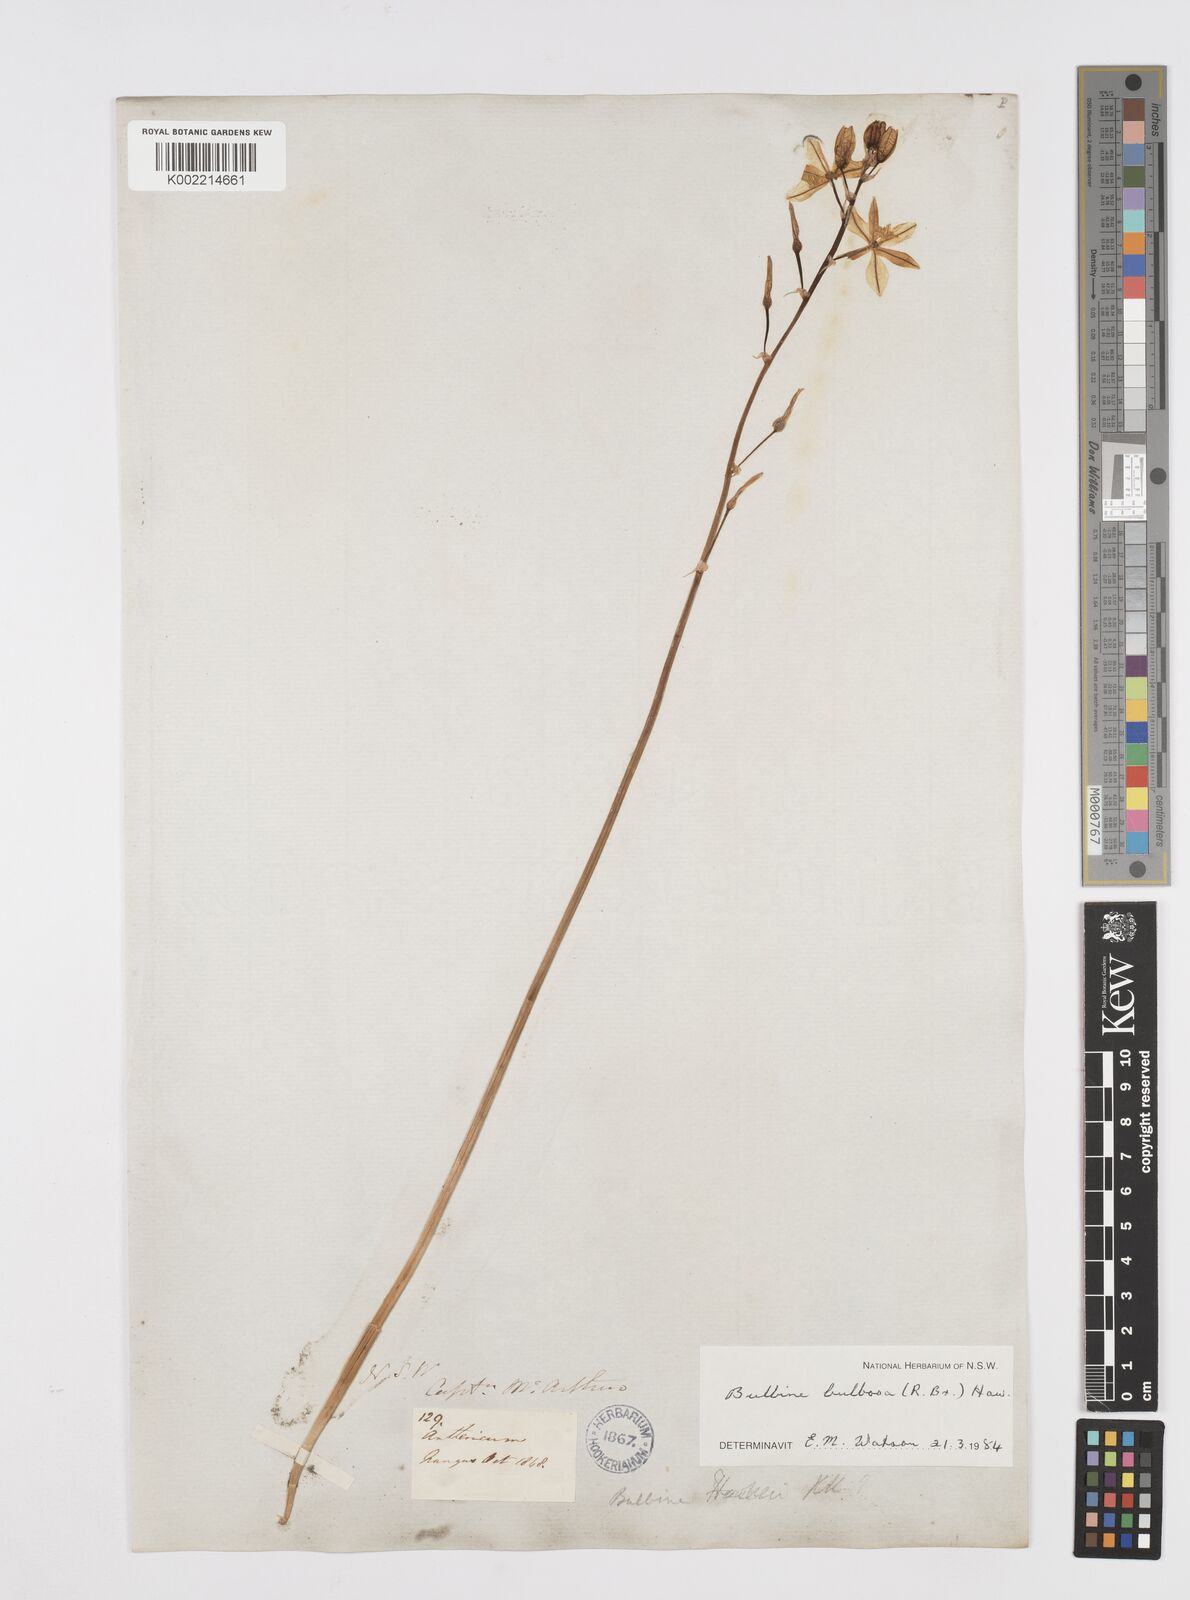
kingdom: Plantae
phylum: Tracheophyta
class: Liliopsida
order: Asparagales
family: Asphodelaceae
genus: Bulbine
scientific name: Bulbine bulbosa
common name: Golden-lily
